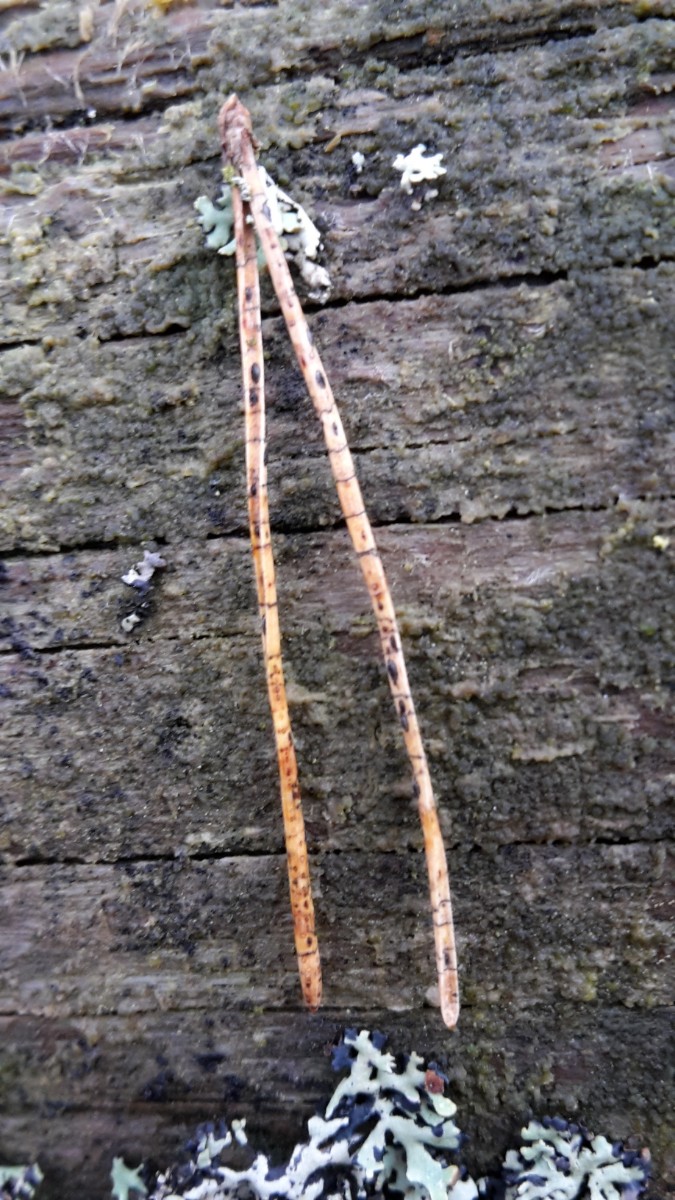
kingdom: Fungi
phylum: Ascomycota
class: Leotiomycetes
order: Rhytismatales
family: Rhytismataceae
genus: Lophodermium
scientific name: Lophodermium pinastri
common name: fyrre-fureplet
